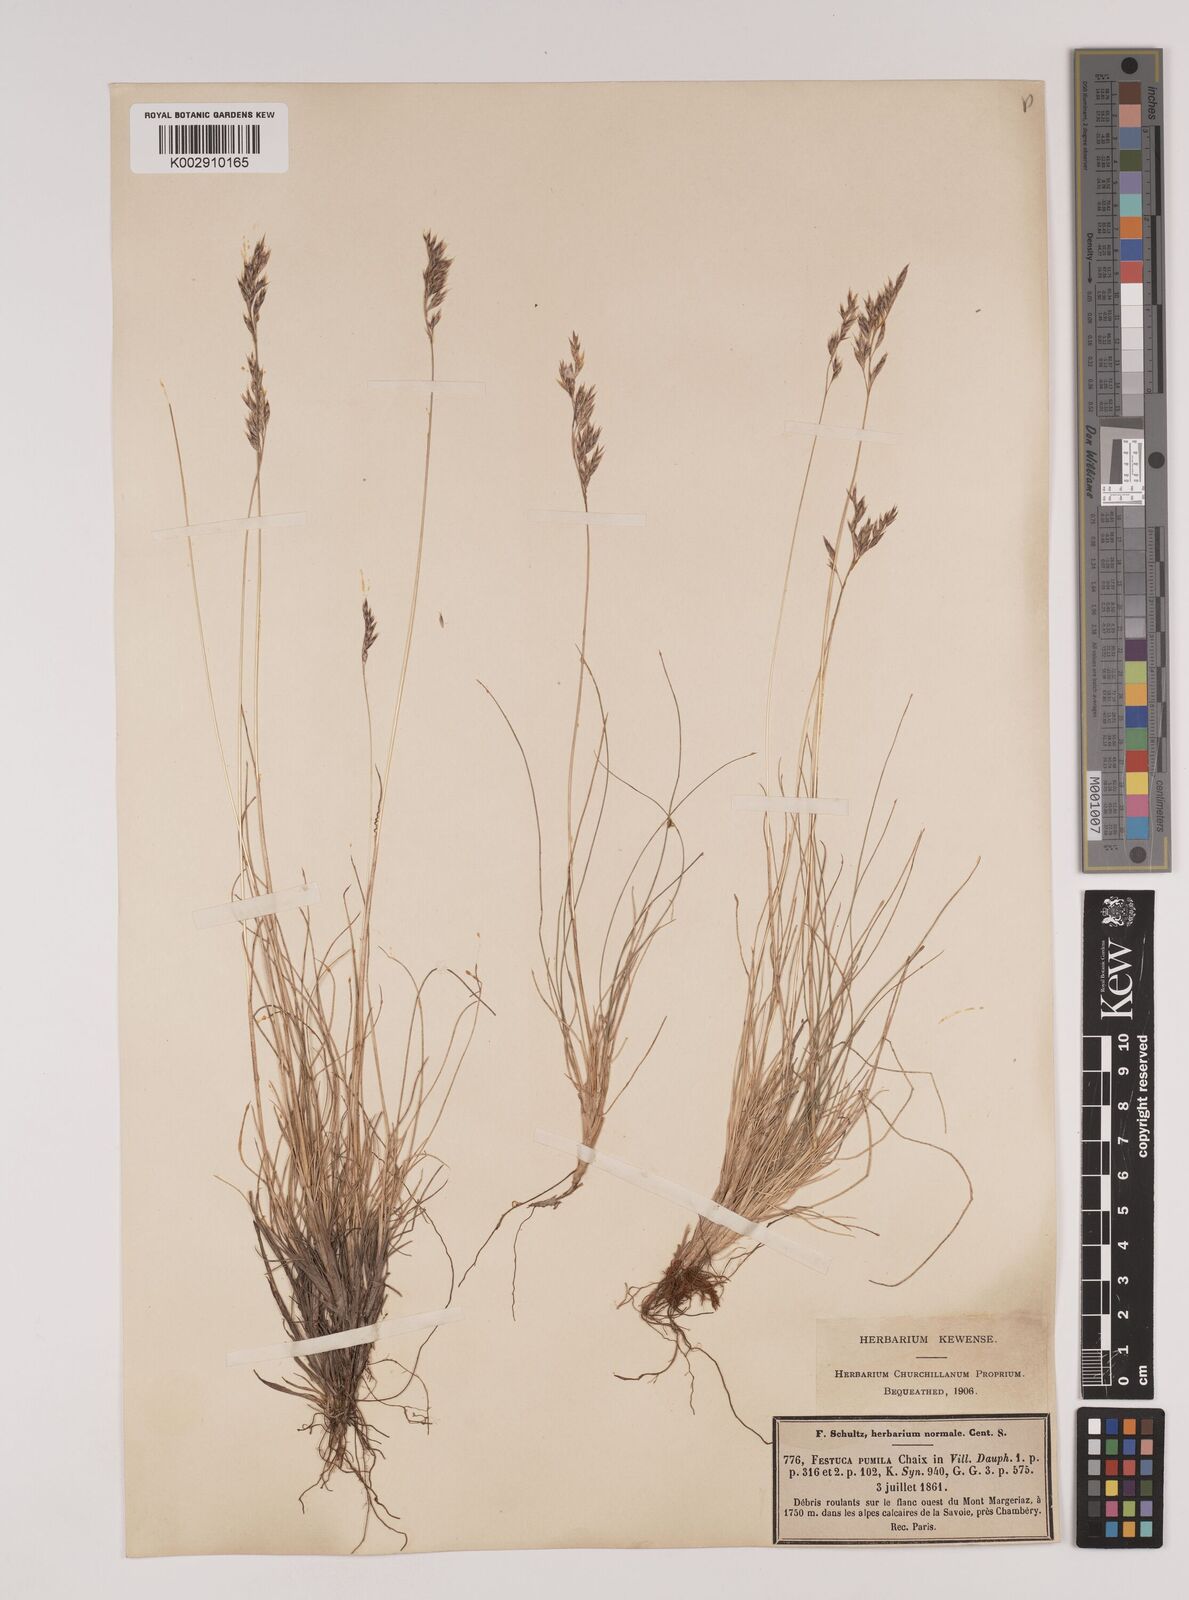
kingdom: Plantae
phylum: Tracheophyta
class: Liliopsida
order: Poales
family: Poaceae
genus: Festuca
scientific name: Festuca
